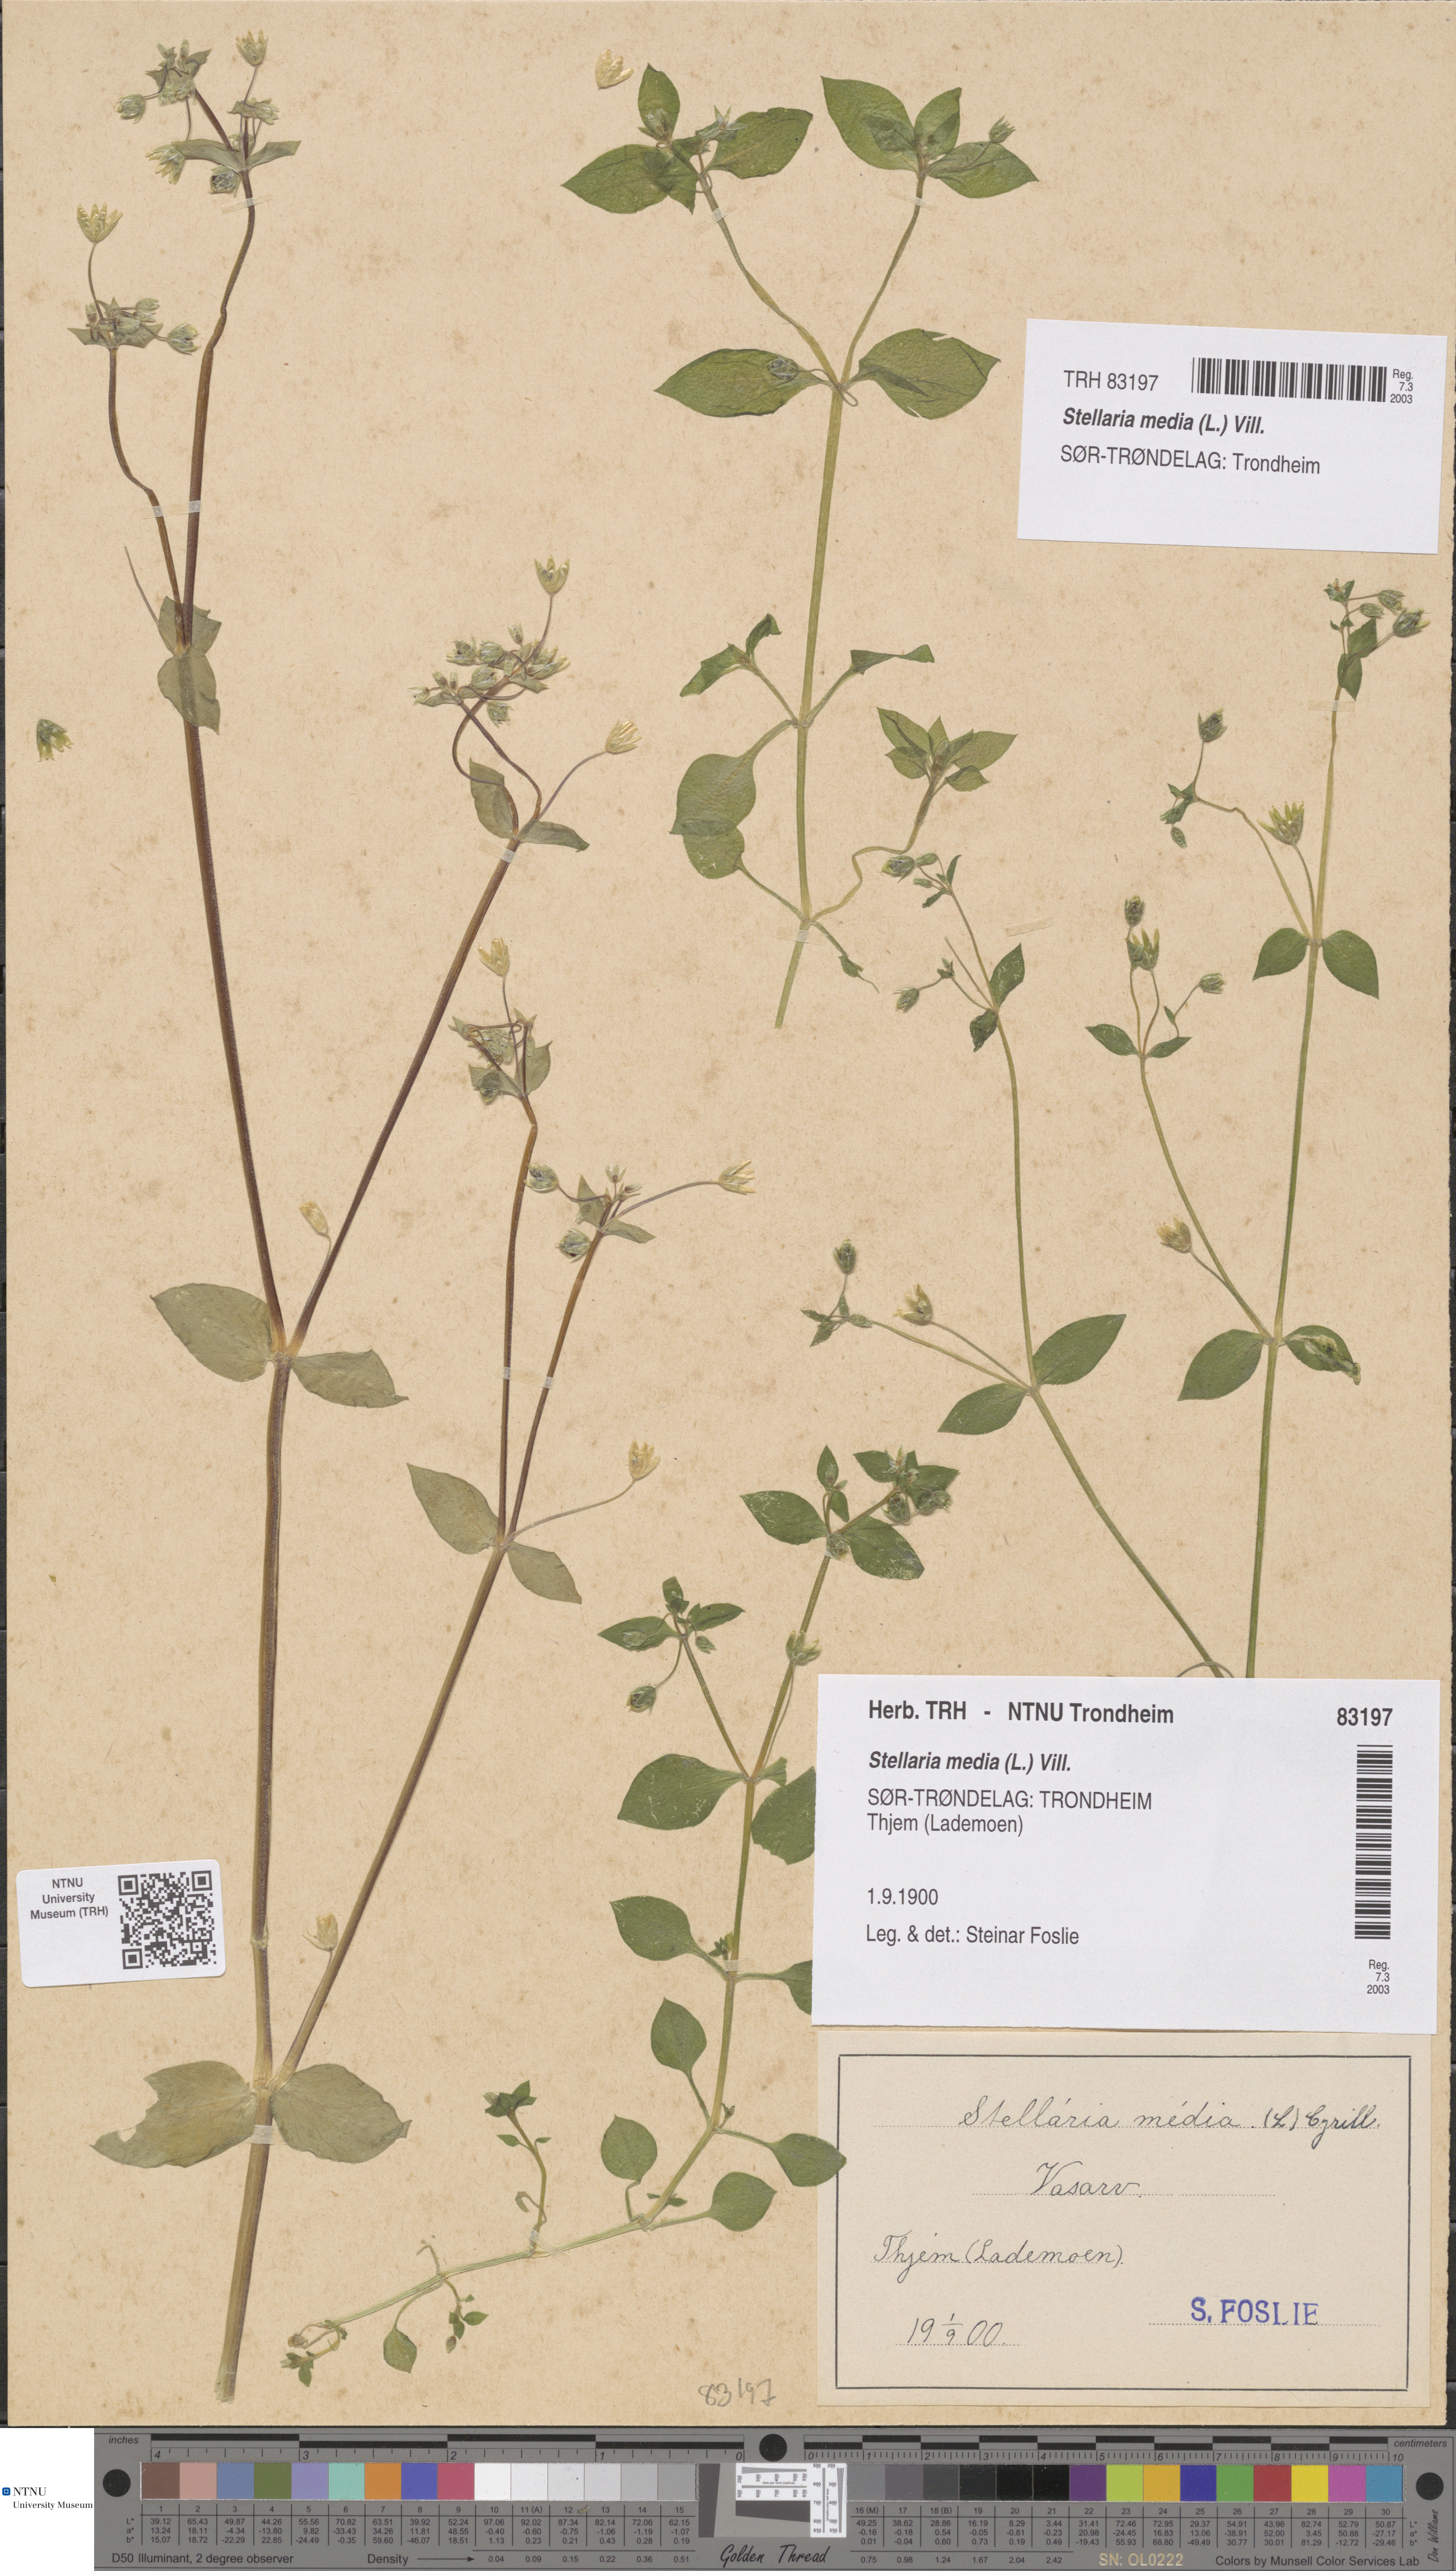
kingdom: Plantae
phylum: Tracheophyta
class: Magnoliopsida
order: Caryophyllales
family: Caryophyllaceae
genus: Stellaria
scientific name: Stellaria media
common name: Common chickweed
